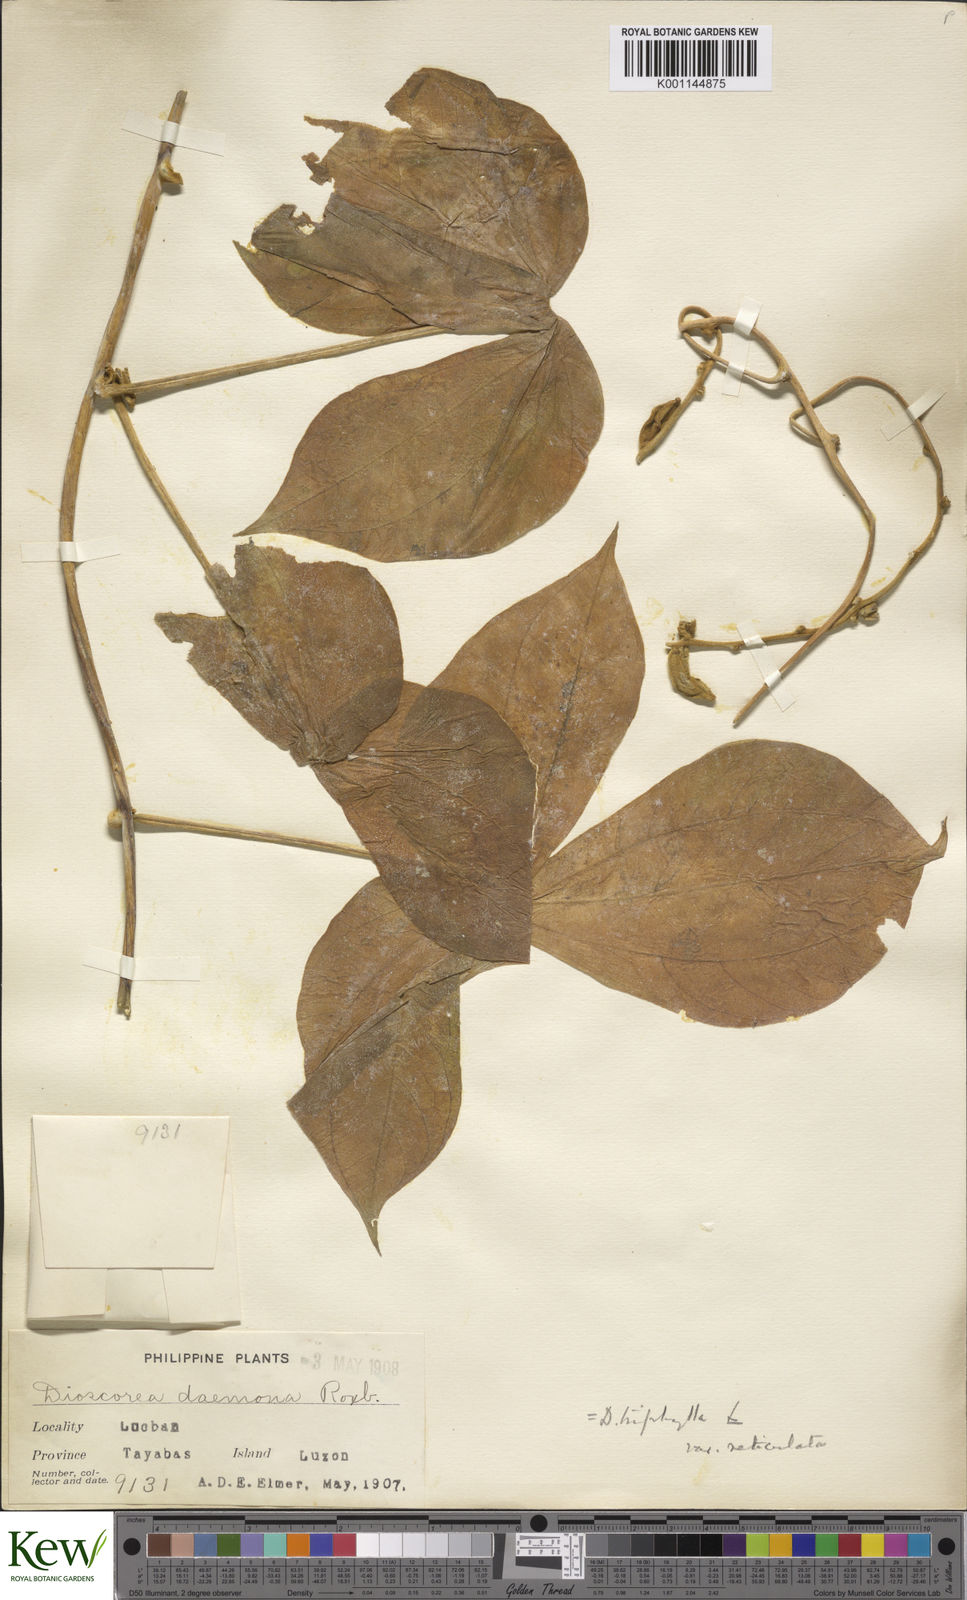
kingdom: Plantae
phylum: Tracheophyta
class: Liliopsida
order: Dioscoreales
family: Dioscoreaceae
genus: Dioscorea
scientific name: Dioscorea hispida
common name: Asiatic bitter yam
